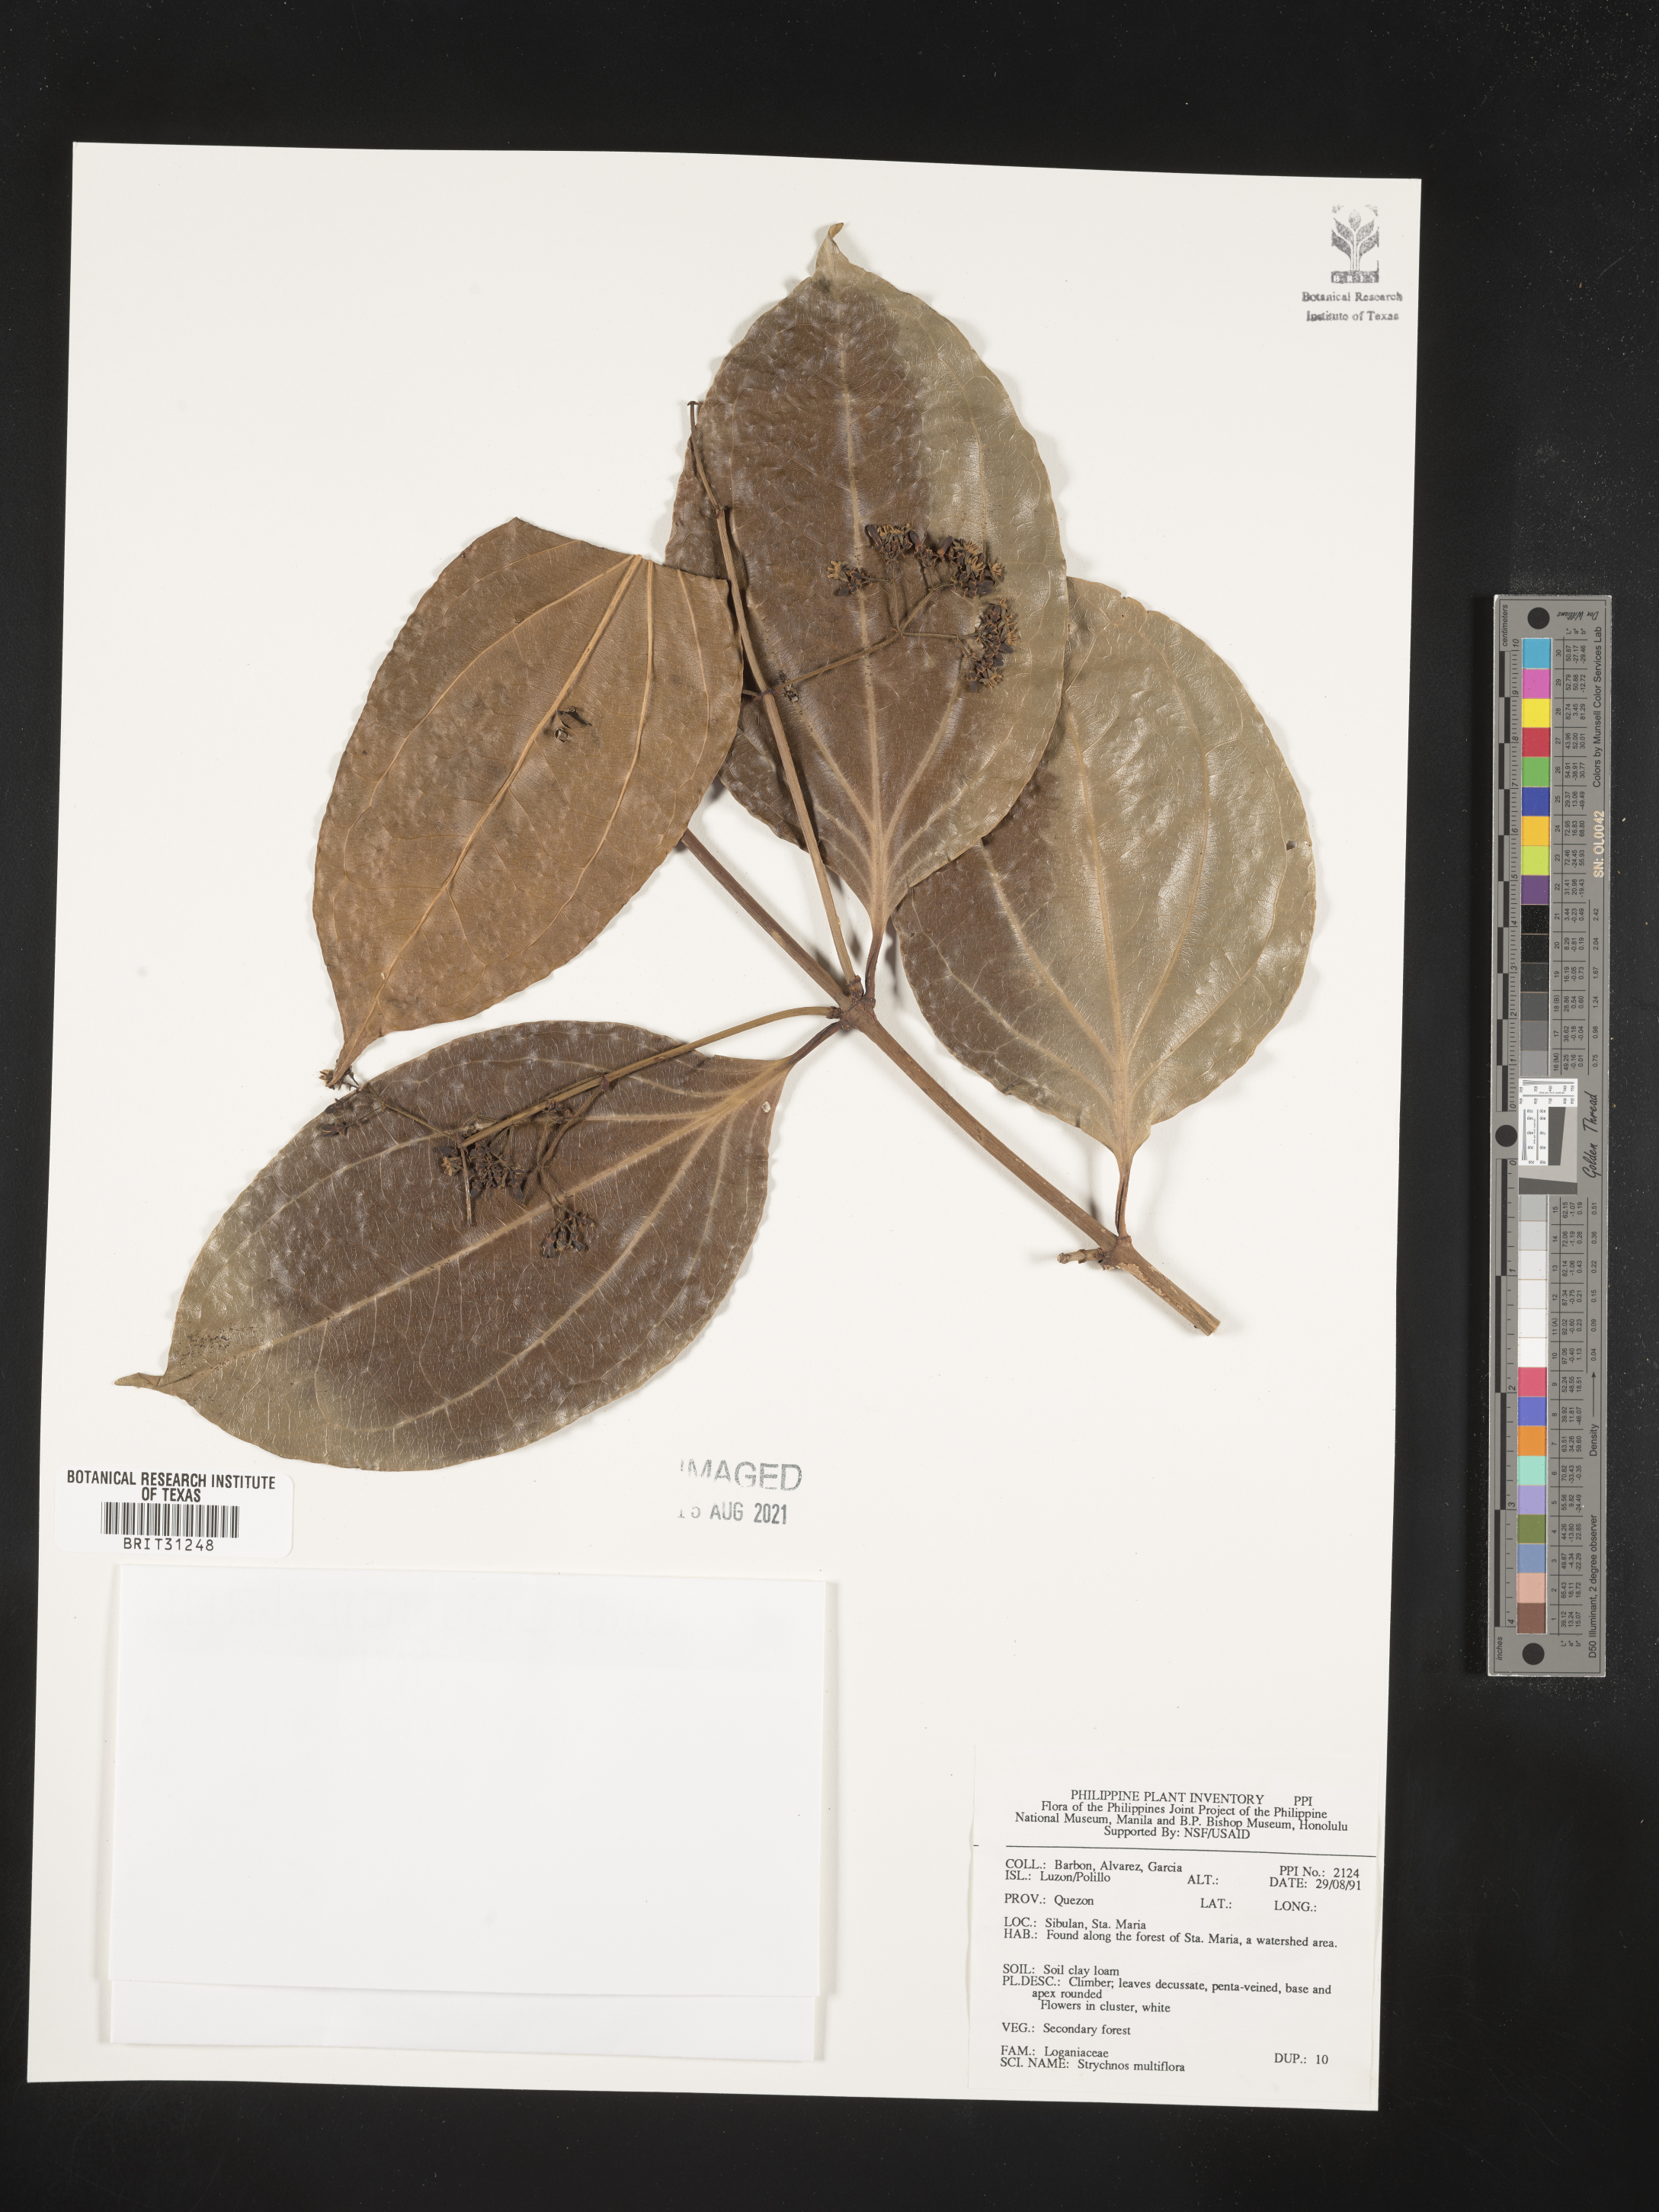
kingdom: Plantae
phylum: Tracheophyta
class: Magnoliopsida
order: Gentianales
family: Loganiaceae
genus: Strychnos
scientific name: Strychnos minor
